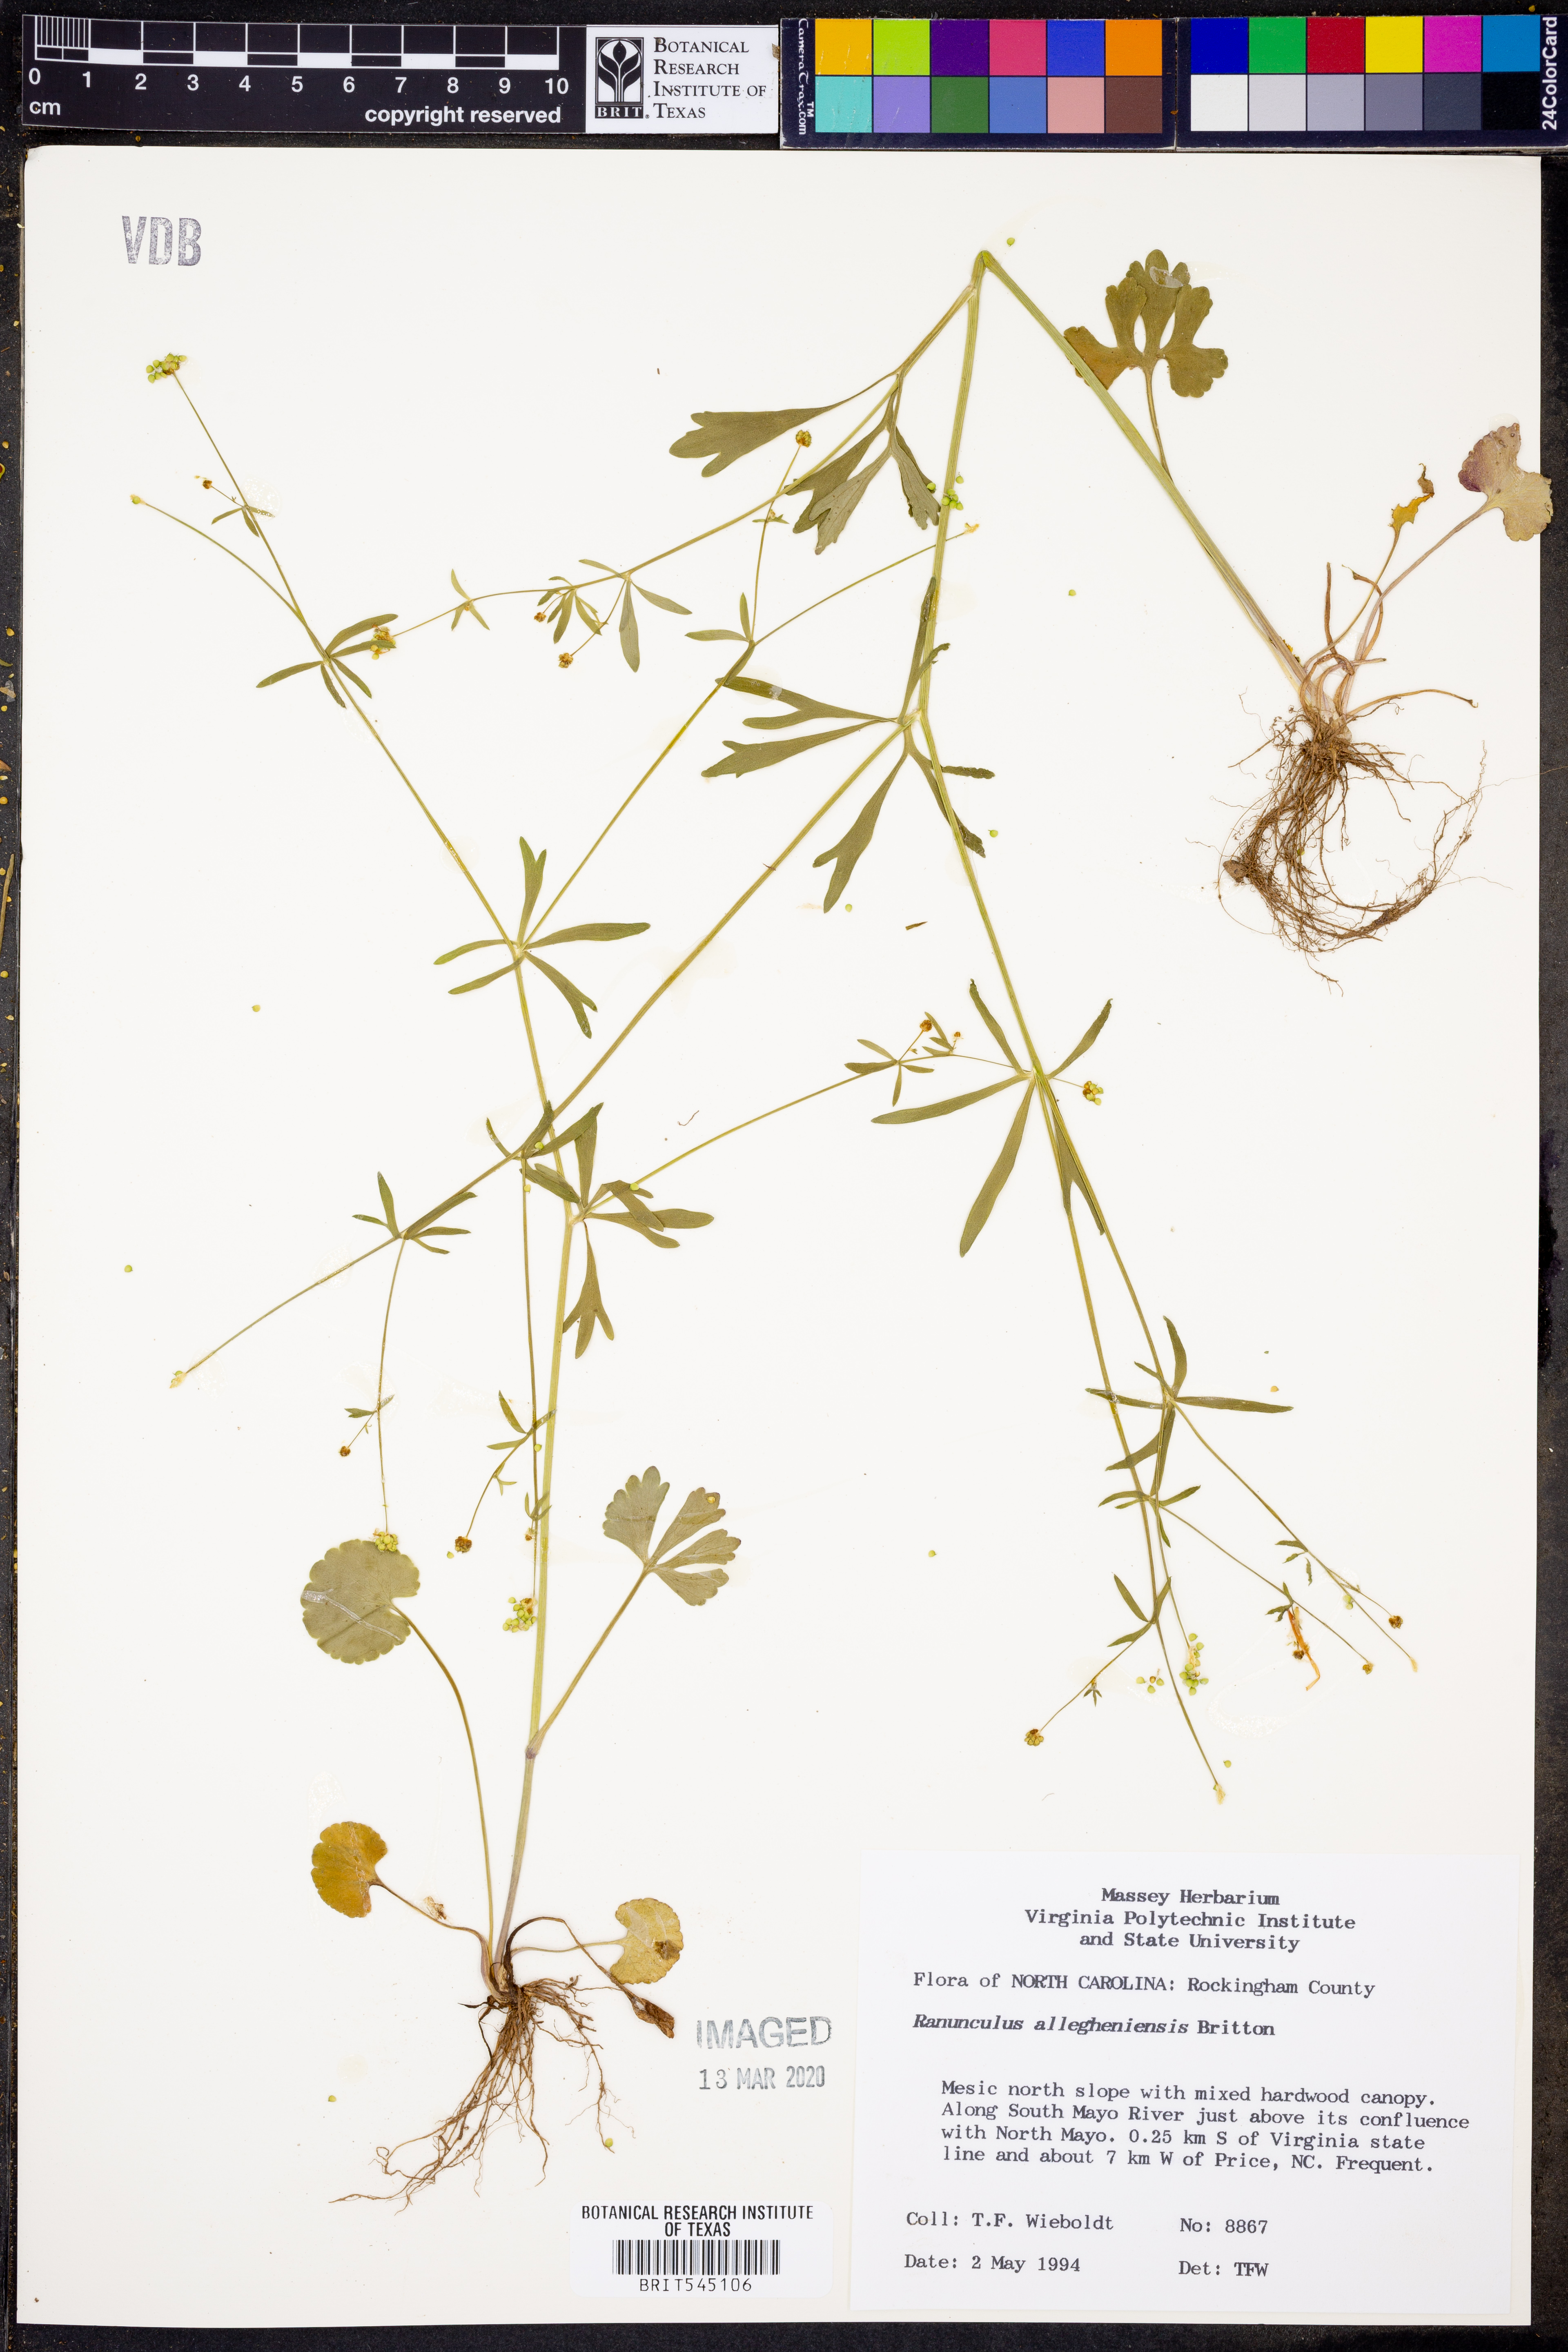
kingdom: Plantae
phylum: Tracheophyta
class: Magnoliopsida
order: Ranunculales
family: Ranunculaceae
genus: Ranunculus
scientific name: Ranunculus allegheniensis
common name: Allegheny mountain buttercup
